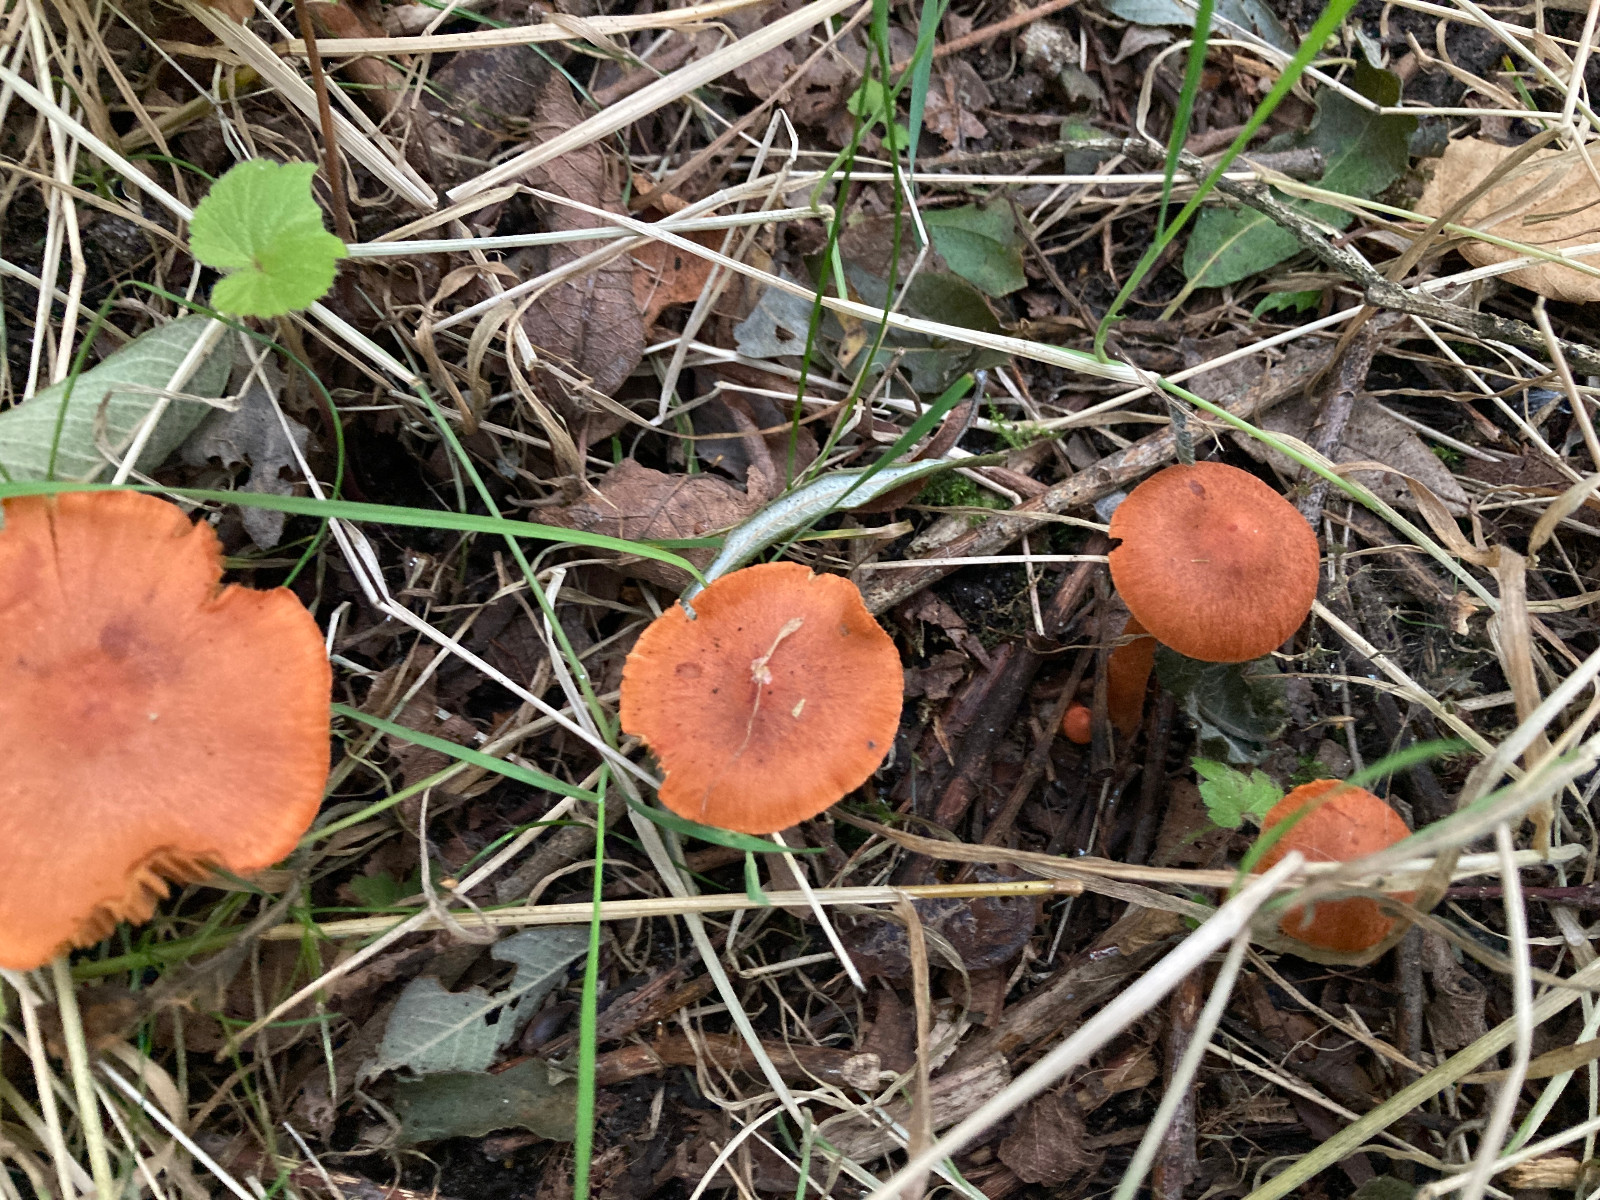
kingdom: Fungi
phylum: Basidiomycota
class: Agaricomycetes
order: Agaricales
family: Cortinariaceae
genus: Cortinarius
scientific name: Cortinarius uliginosus
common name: mose-slørhat
